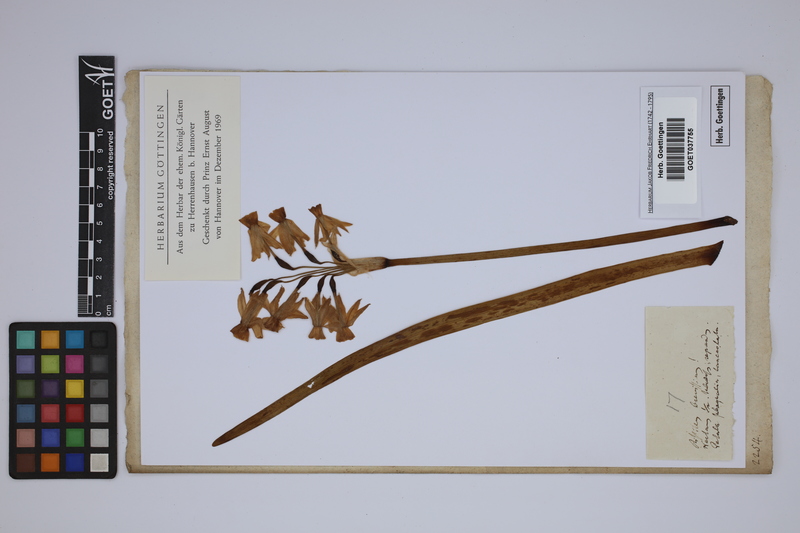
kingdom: Plantae
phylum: Tracheophyta
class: Liliopsida
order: Asparagales
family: Amaryllidaceae
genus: Narcissus
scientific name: Narcissus tazetta
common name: Bunch-flowered daffodil
